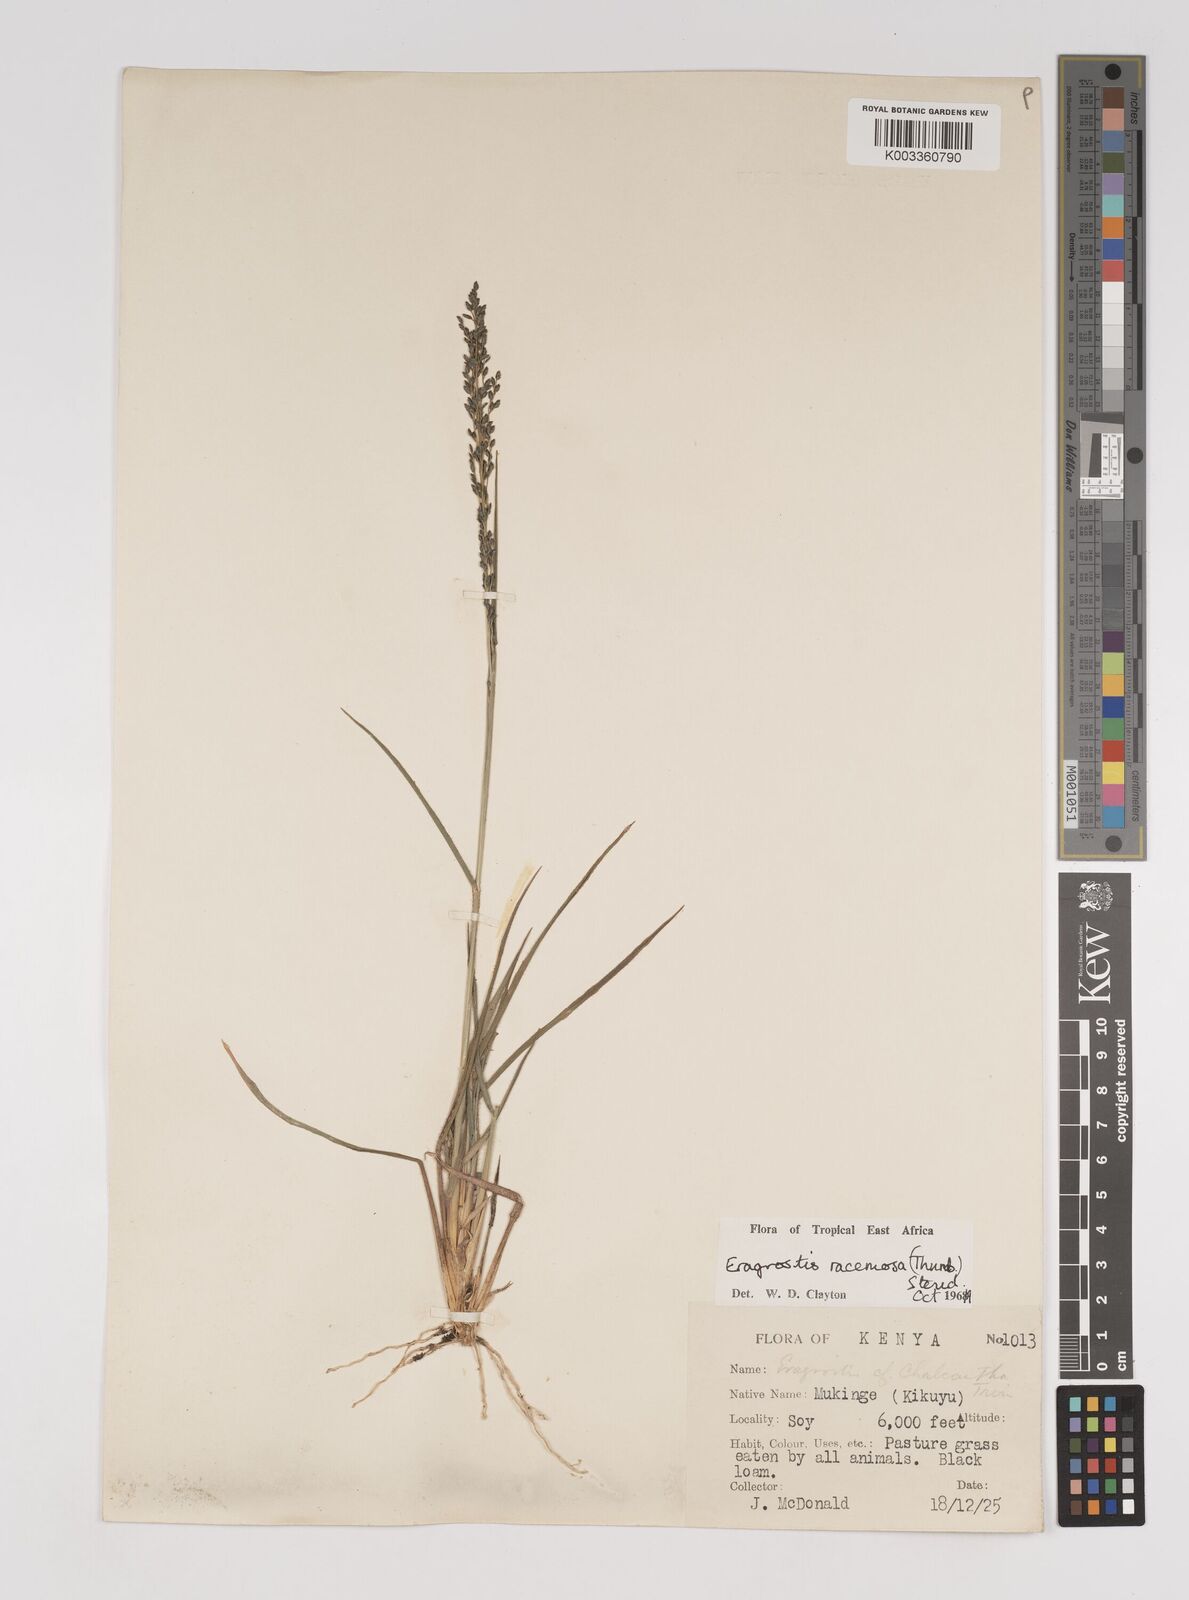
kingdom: Plantae
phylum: Tracheophyta
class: Liliopsida
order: Poales
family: Poaceae
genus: Eragrostis
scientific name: Eragrostis racemosa
